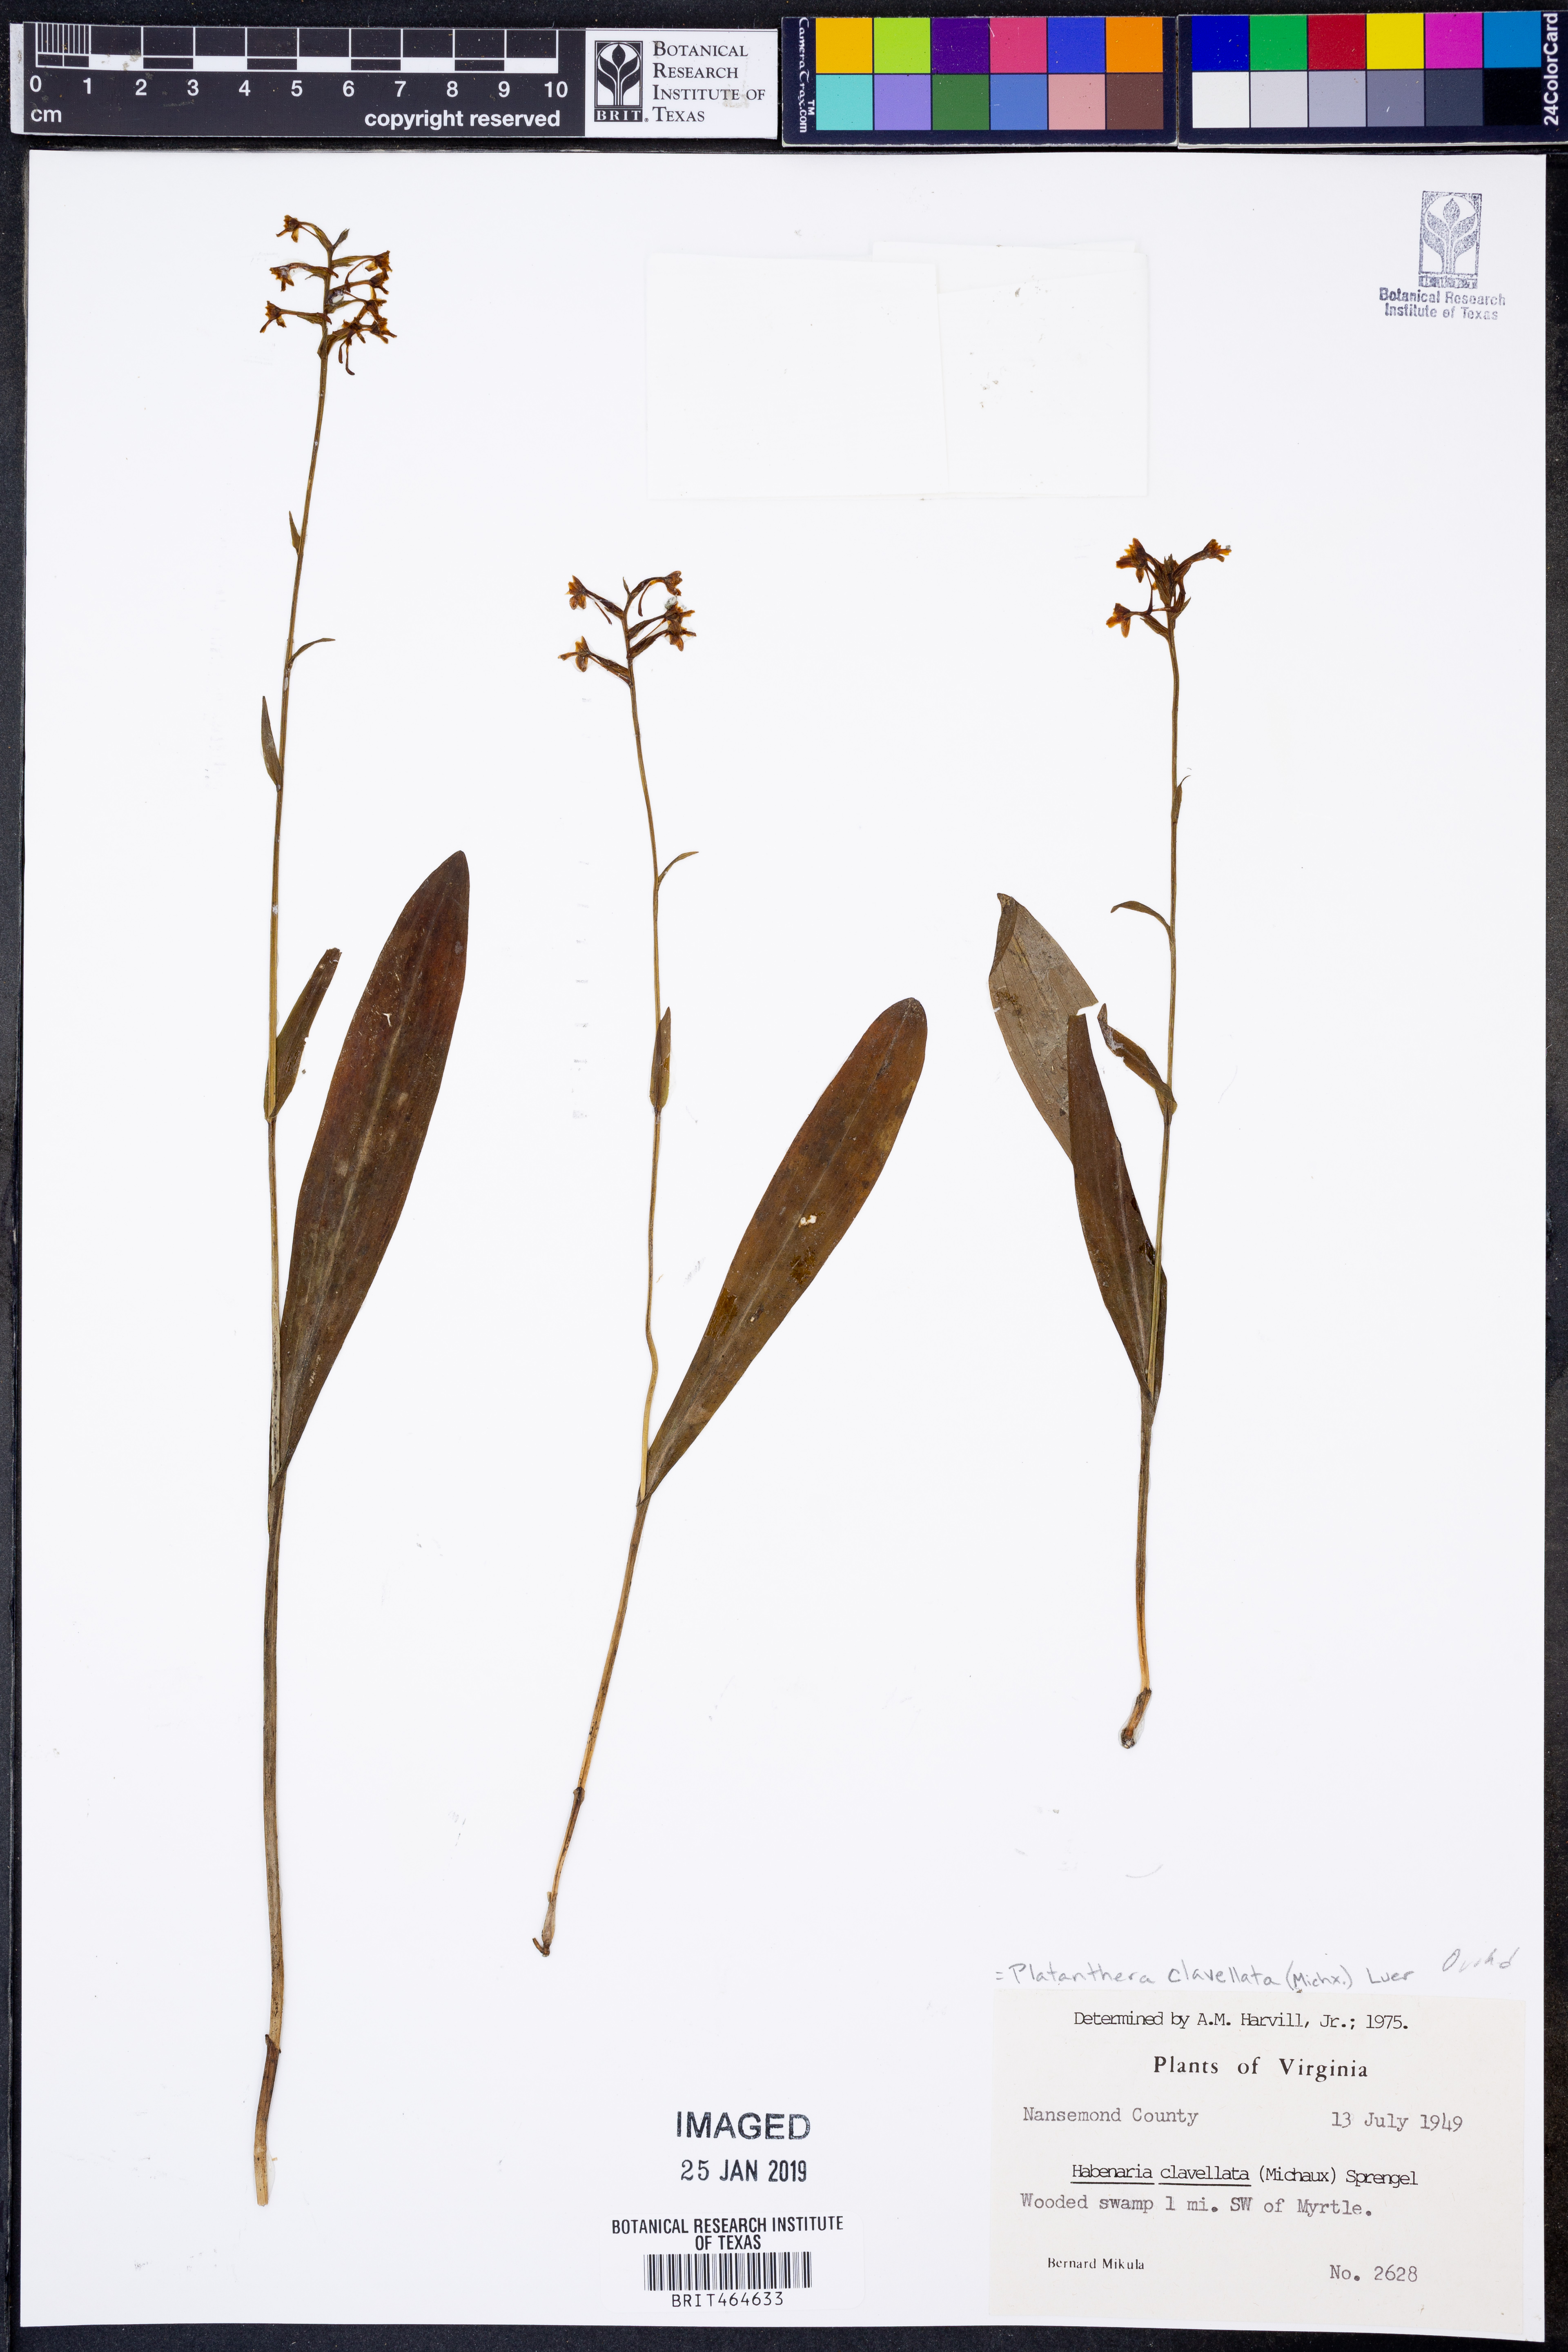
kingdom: Plantae
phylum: Tracheophyta
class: Liliopsida
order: Asparagales
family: Orchidaceae
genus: Platanthera
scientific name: Platanthera clavellata
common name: Club-spur orchid
